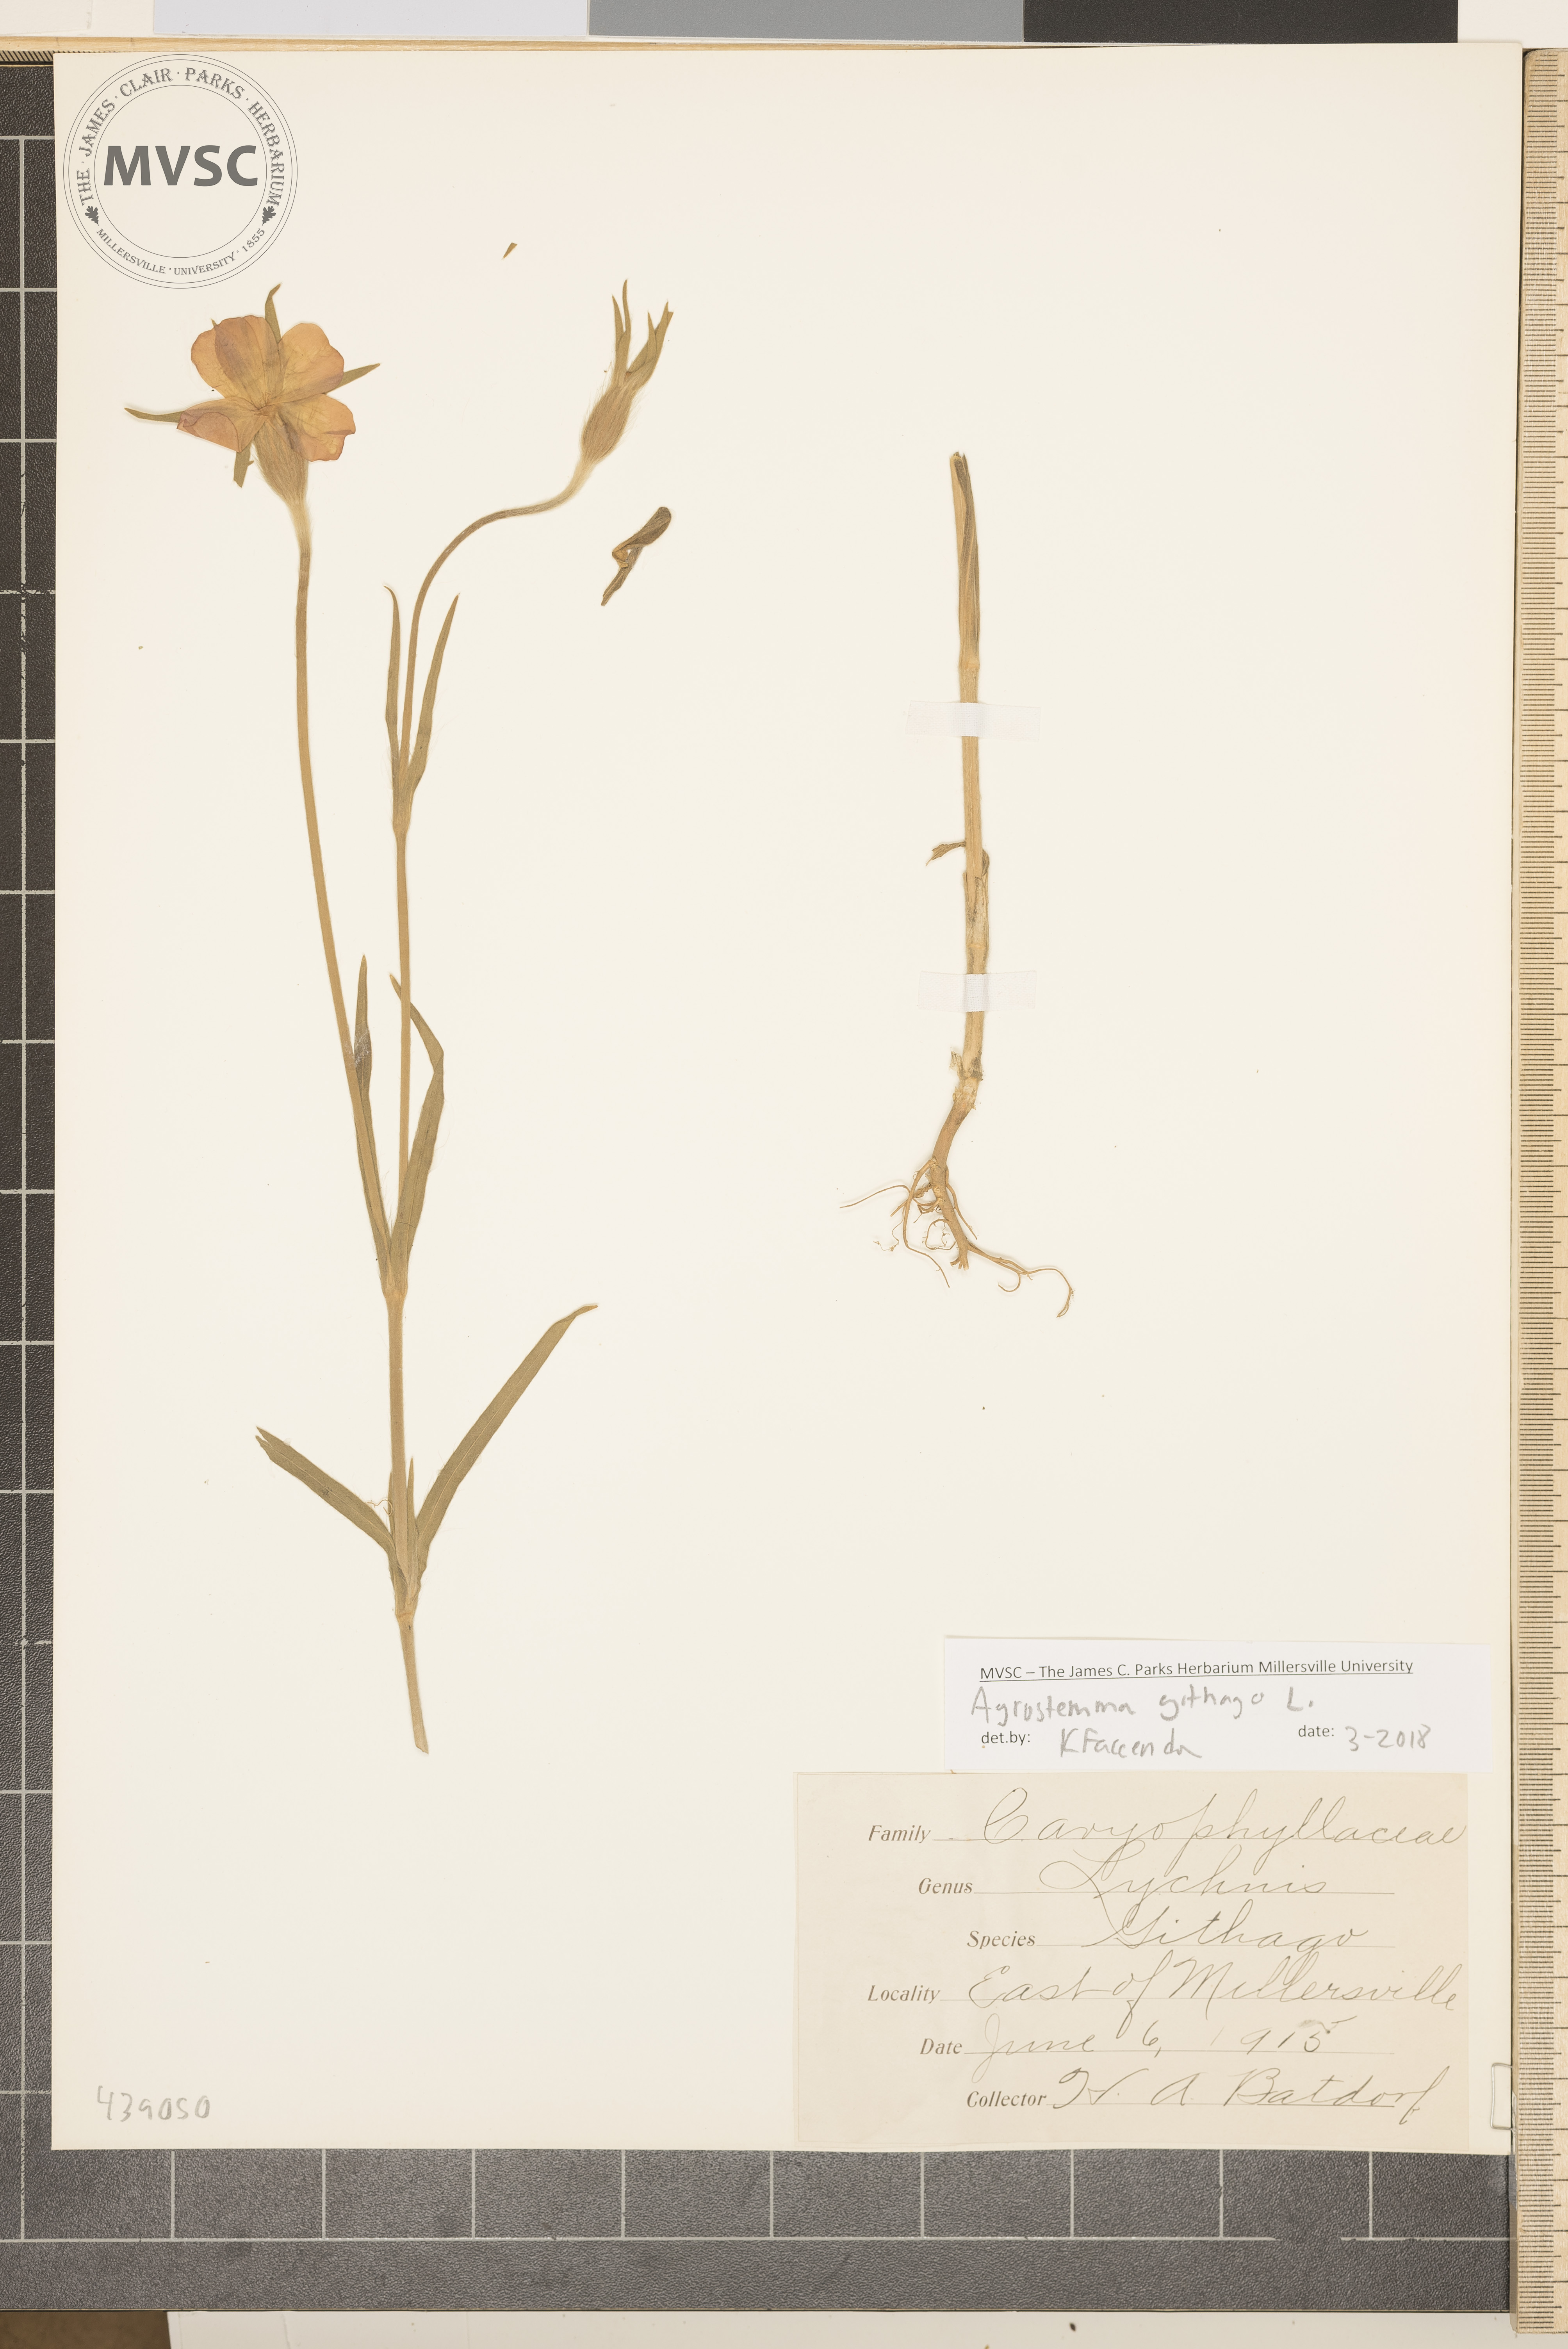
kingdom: Plantae
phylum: Tracheophyta
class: Magnoliopsida
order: Caryophyllales
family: Caryophyllaceae
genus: Agrostemma
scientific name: Agrostemma githago
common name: Common corncockle
